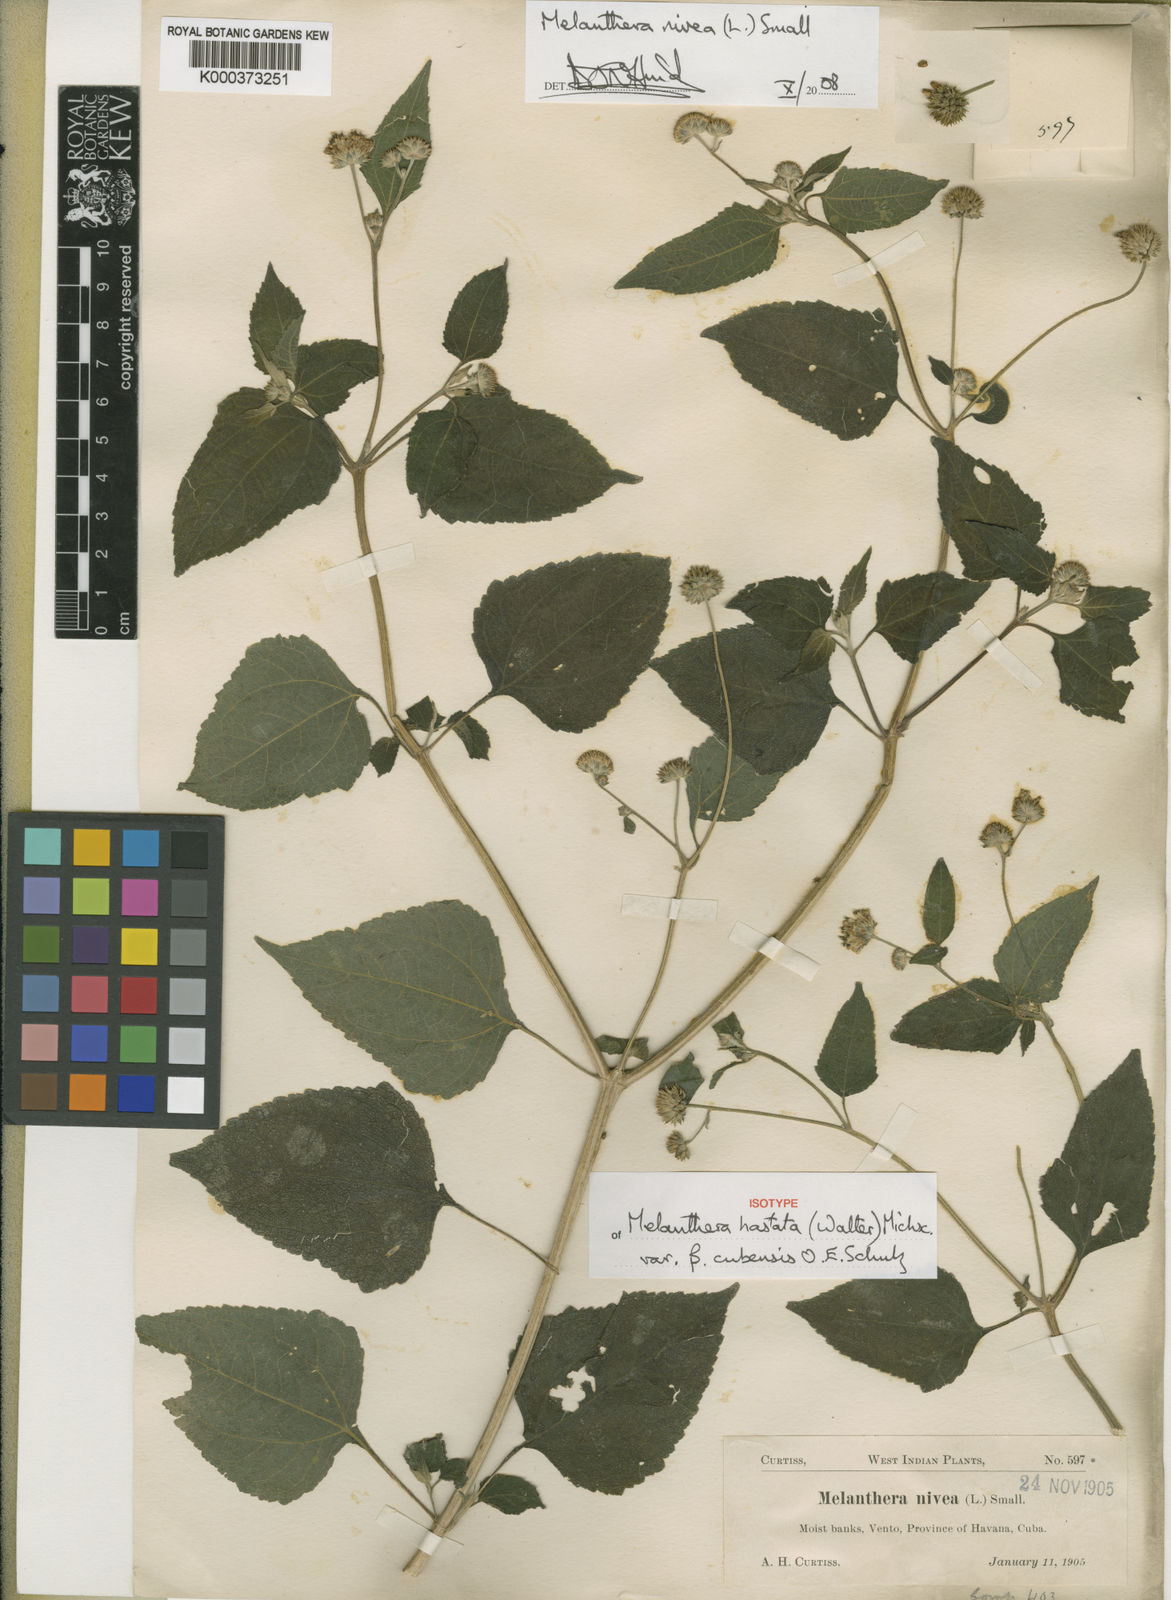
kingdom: Plantae
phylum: Tracheophyta
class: Magnoliopsida
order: Asterales
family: Asteraceae
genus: Melanthera
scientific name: Melanthera nivea
